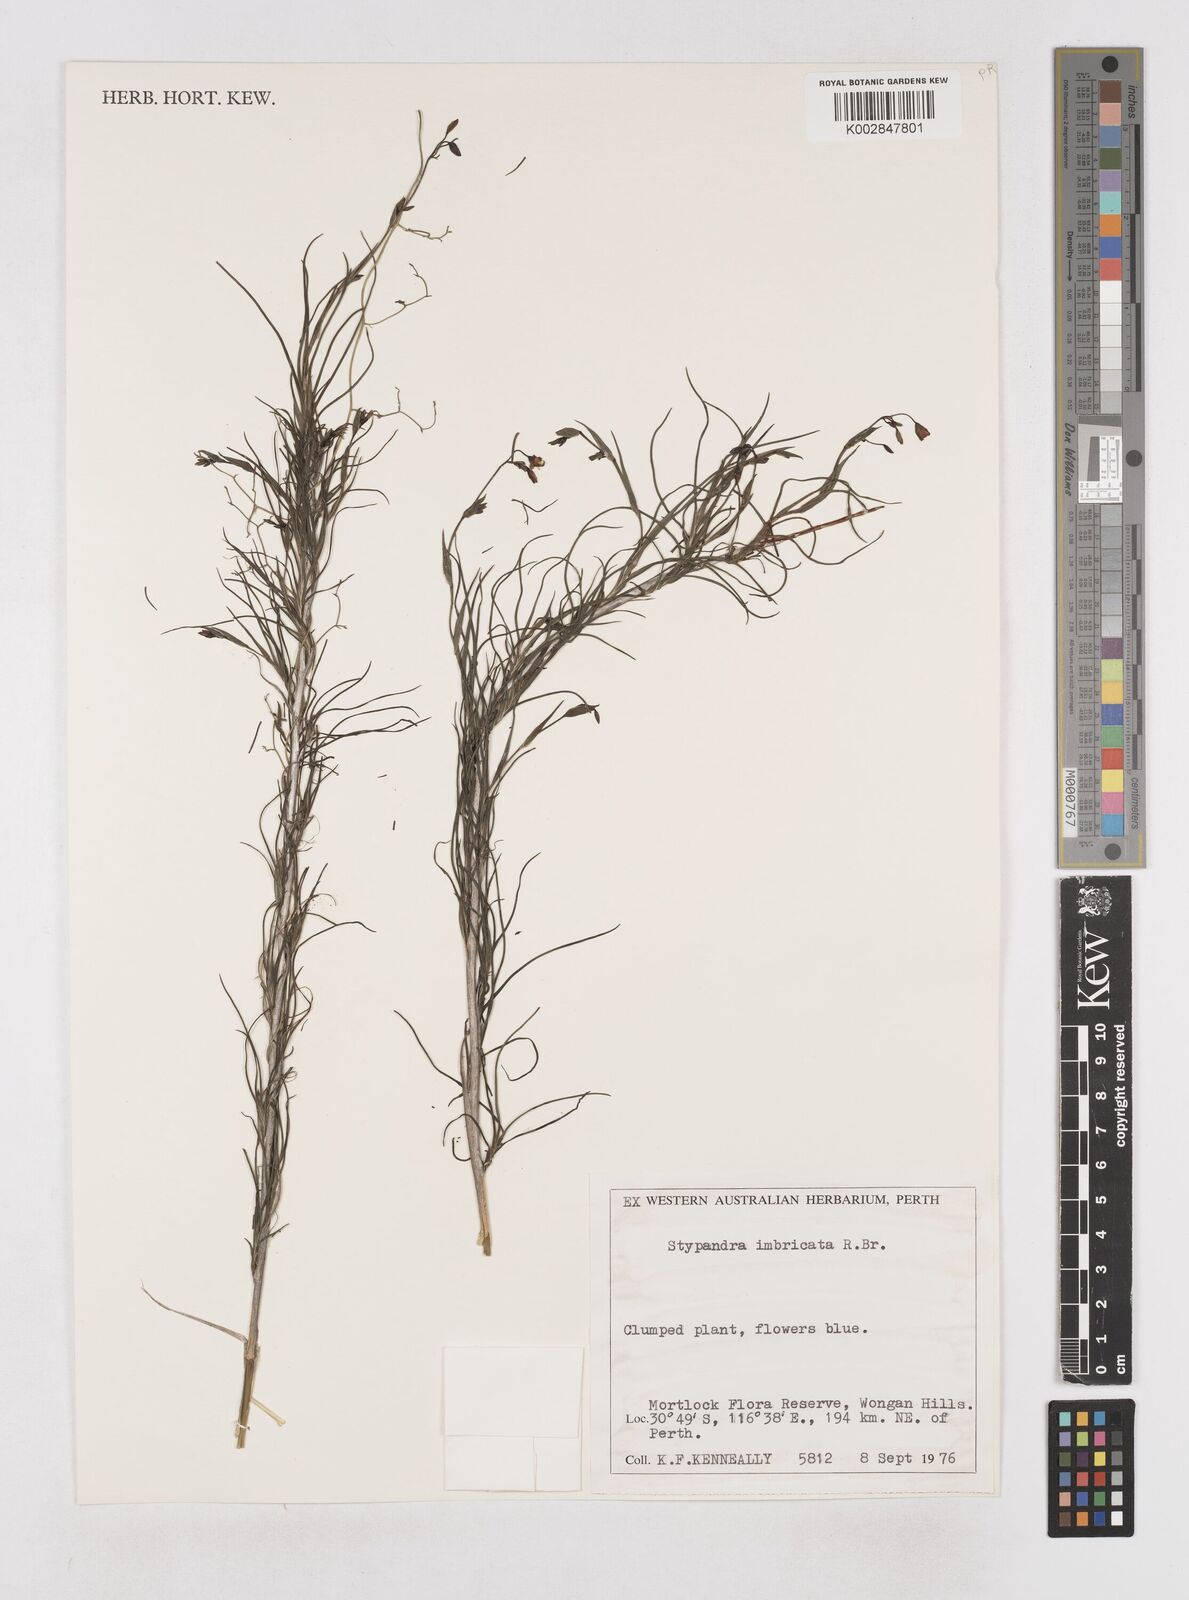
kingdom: Plantae
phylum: Tracheophyta
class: Liliopsida
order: Asparagales
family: Asphodelaceae
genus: Stypandra
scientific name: Stypandra glauca
